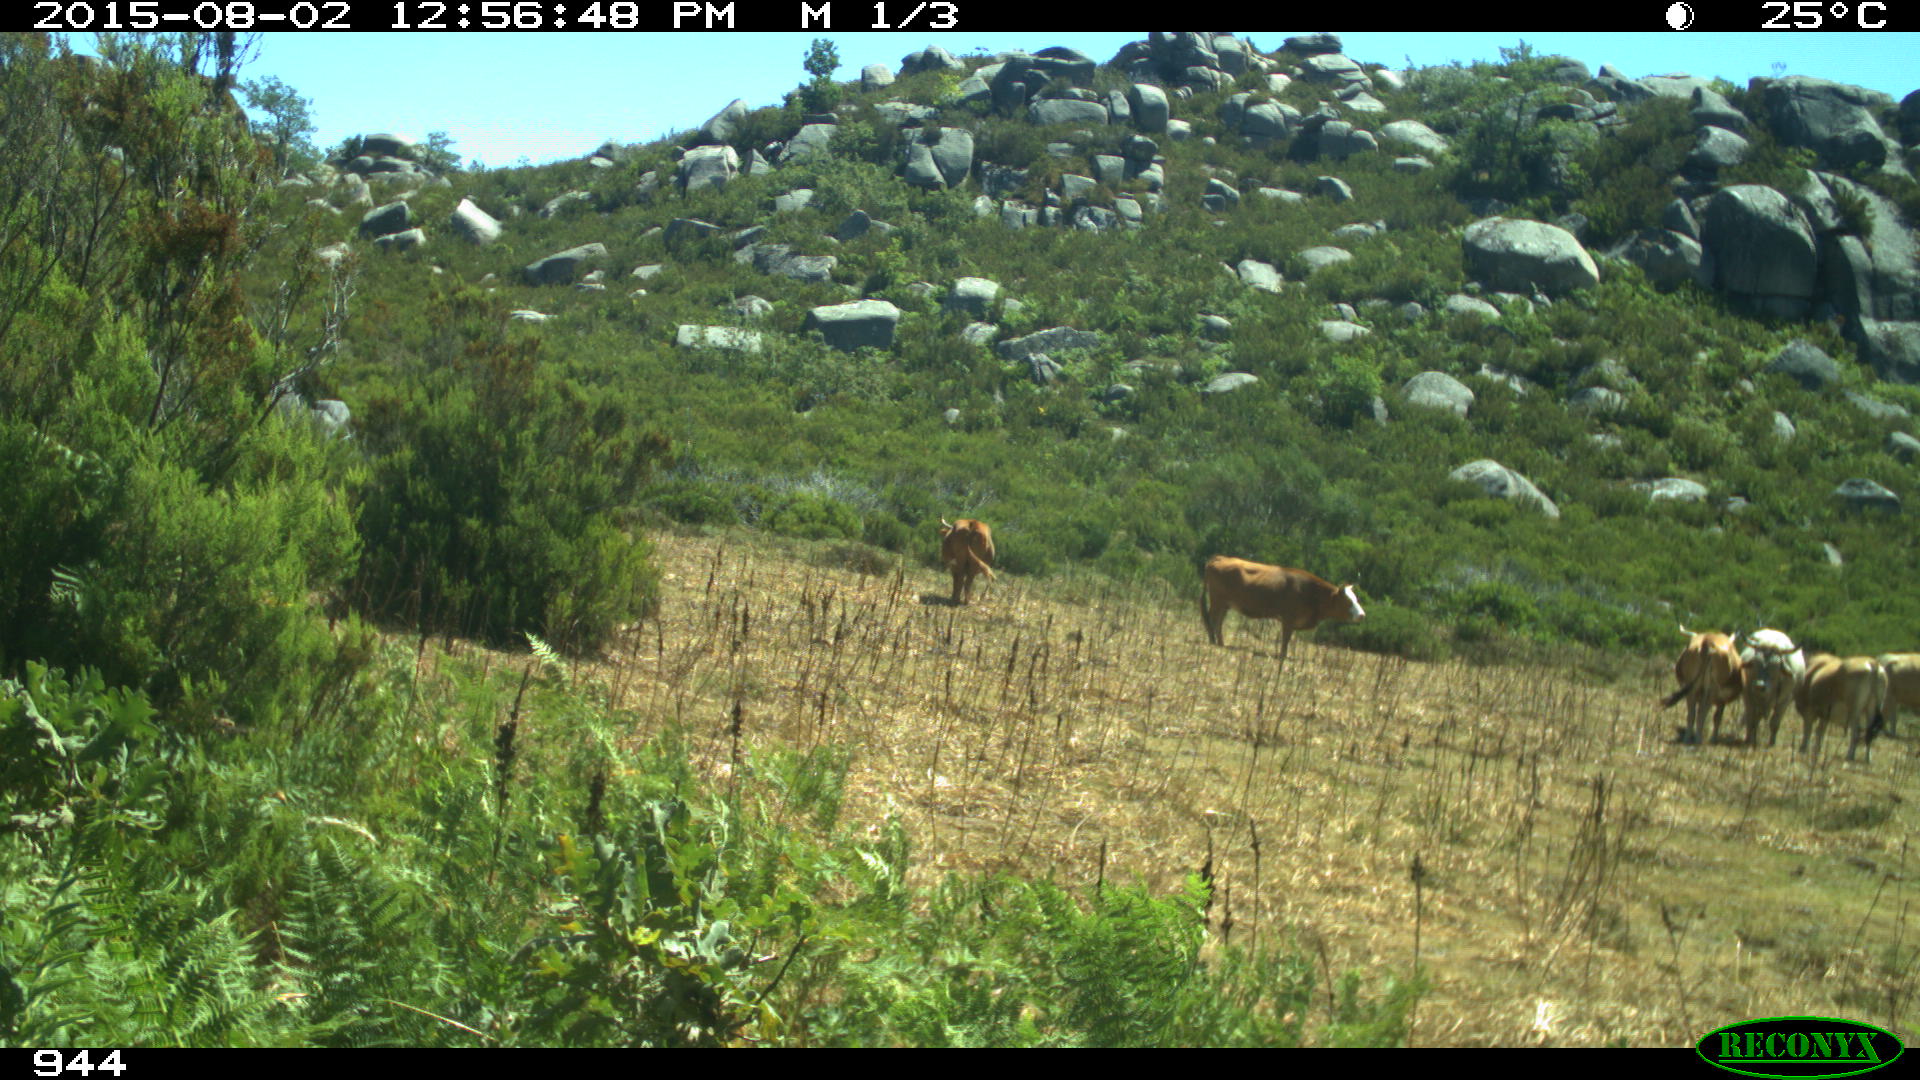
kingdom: Animalia
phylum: Chordata
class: Mammalia
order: Artiodactyla
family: Bovidae
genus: Bos
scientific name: Bos taurus
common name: Domesticated cattle
